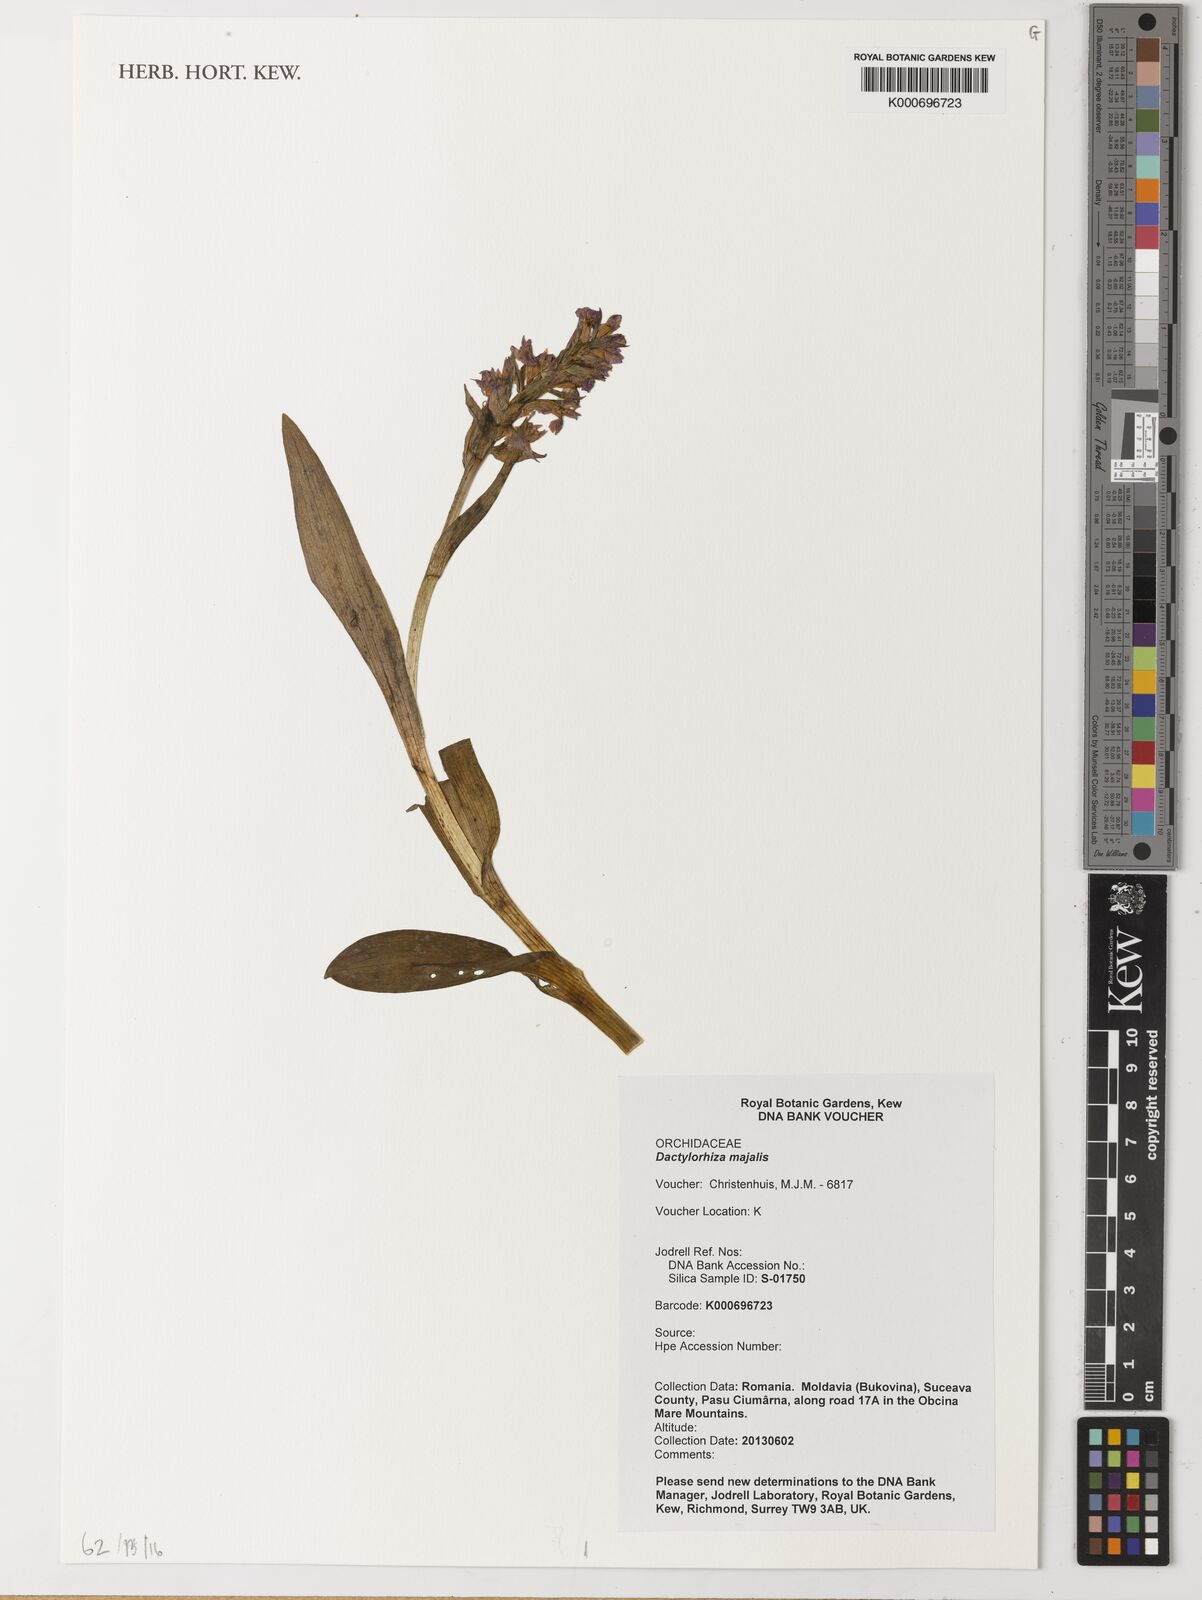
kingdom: Plantae
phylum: Tracheophyta
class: Liliopsida
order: Asparagales
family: Orchidaceae
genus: Dactylorhiza
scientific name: Dactylorhiza majalis
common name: Marsh orchid
